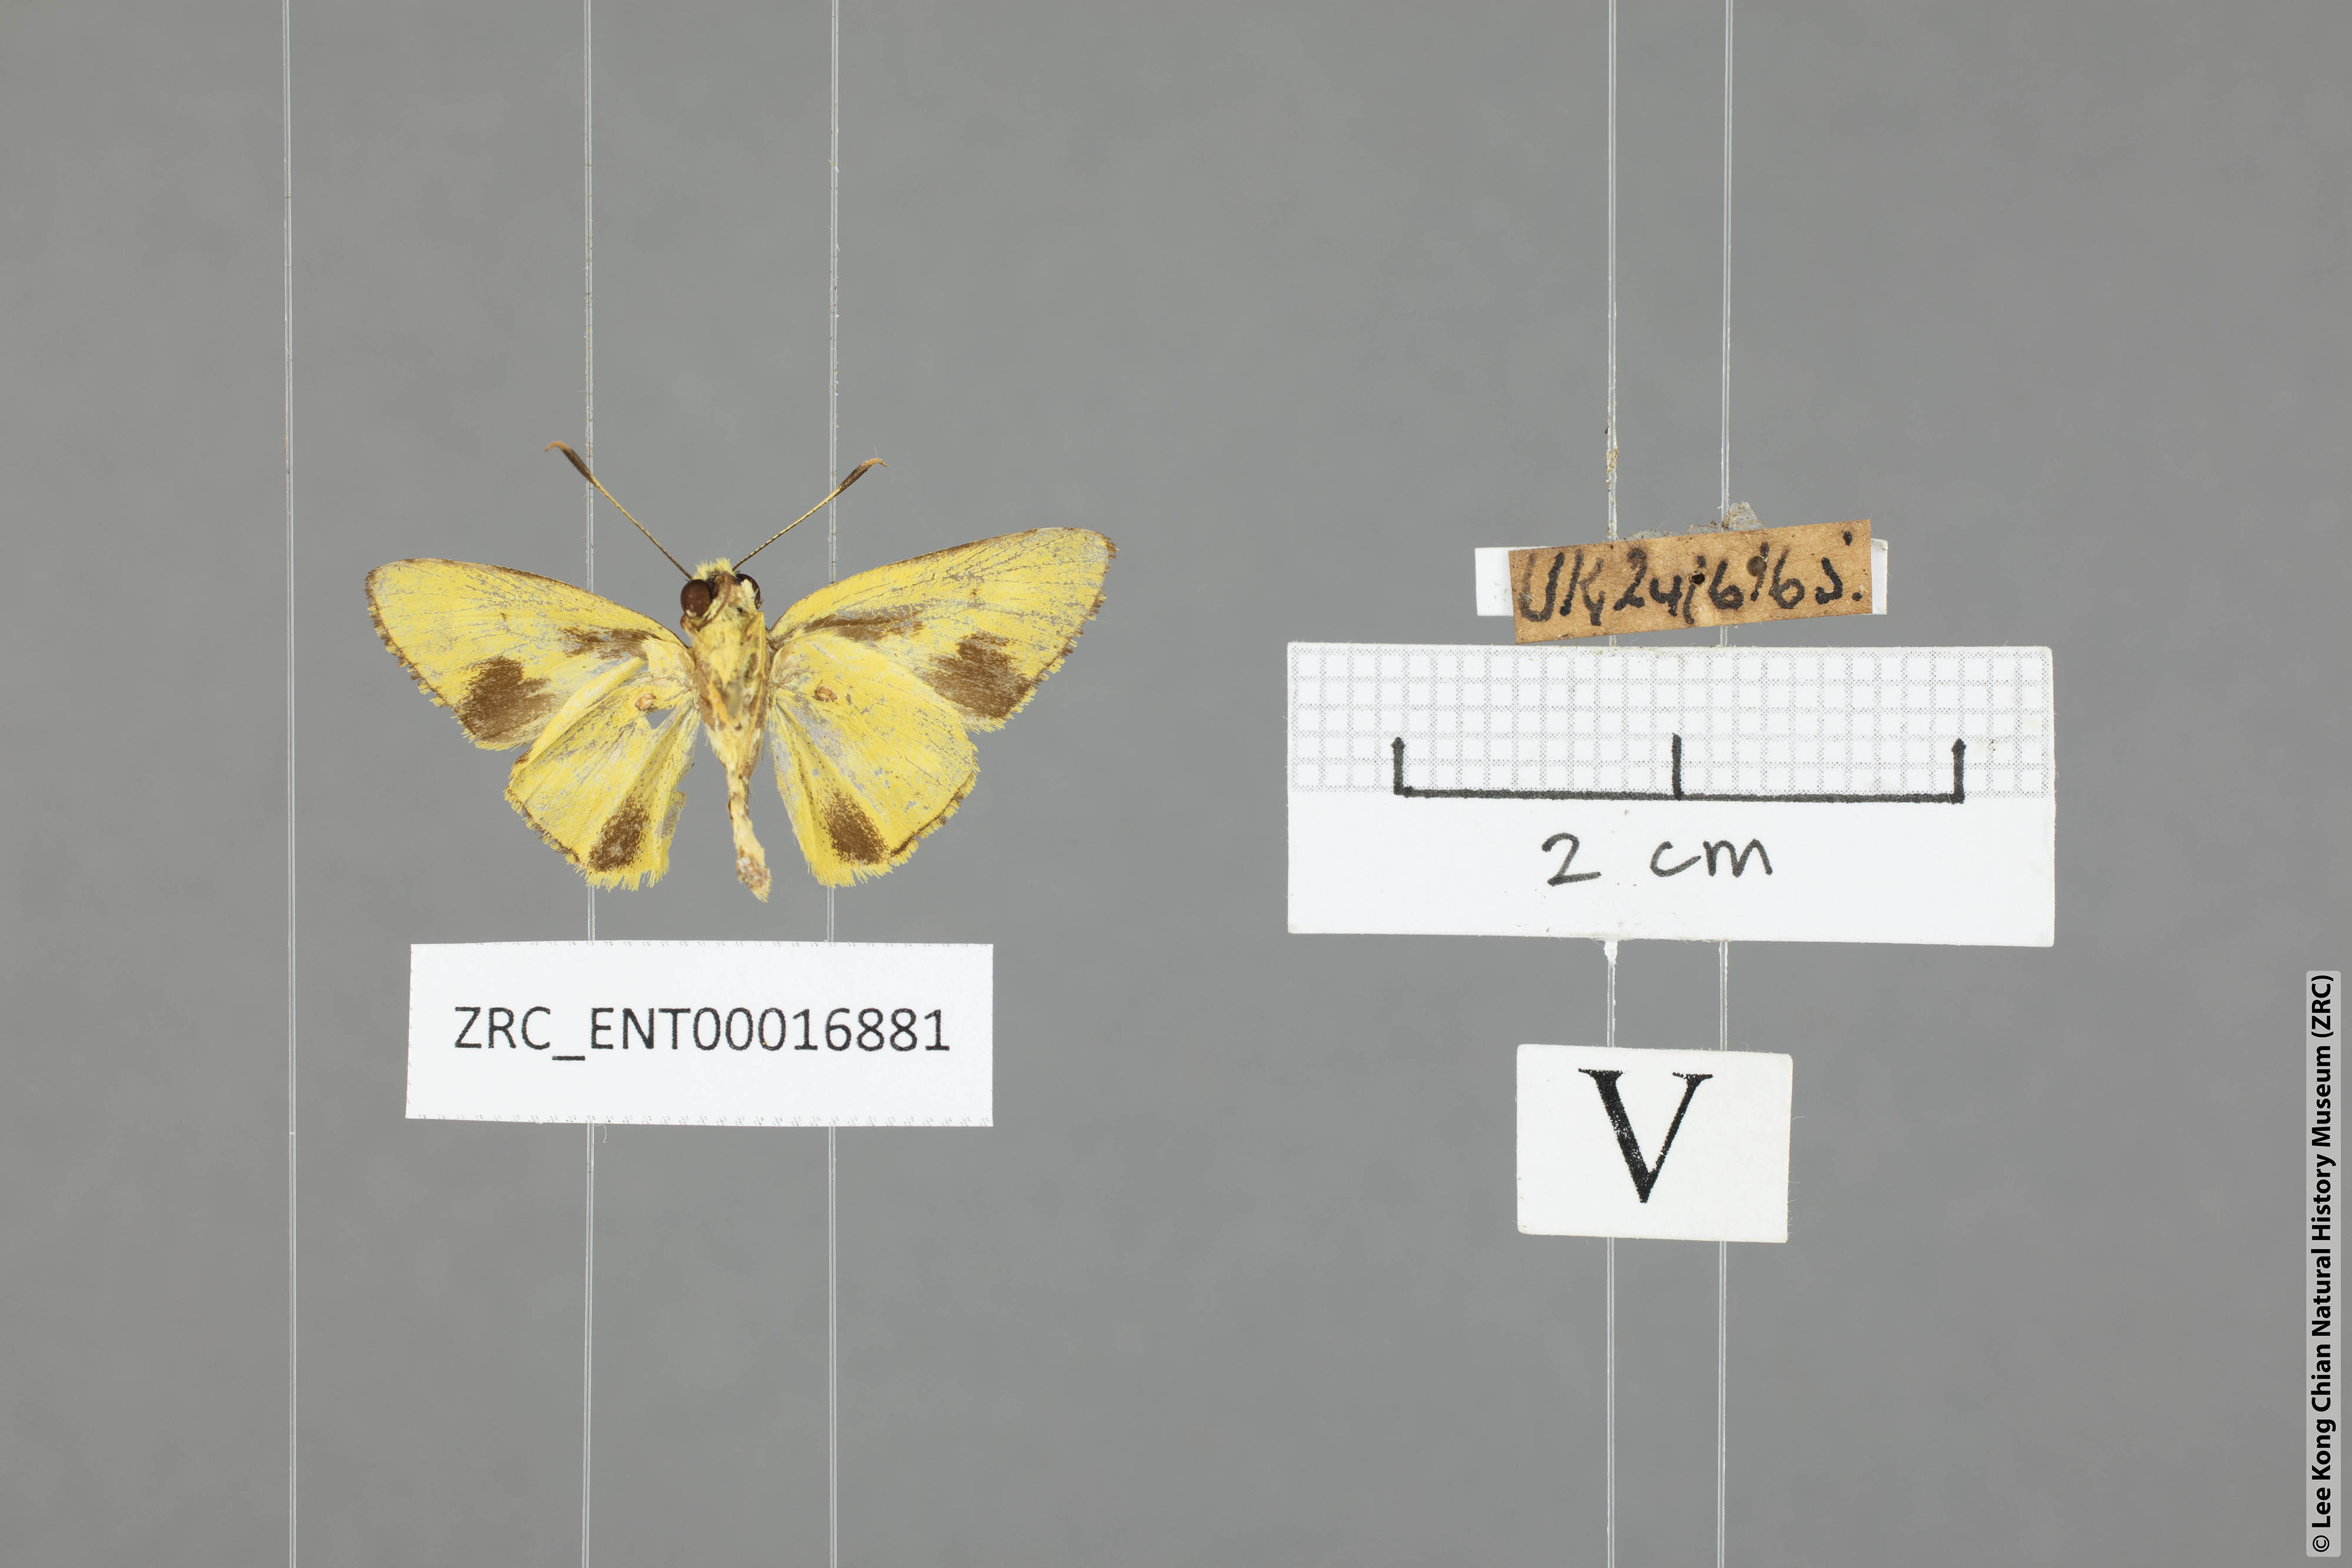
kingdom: Animalia
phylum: Arthropoda
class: Insecta
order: Lepidoptera
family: Hesperiidae
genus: Cupitha
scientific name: Cupitha purreea
